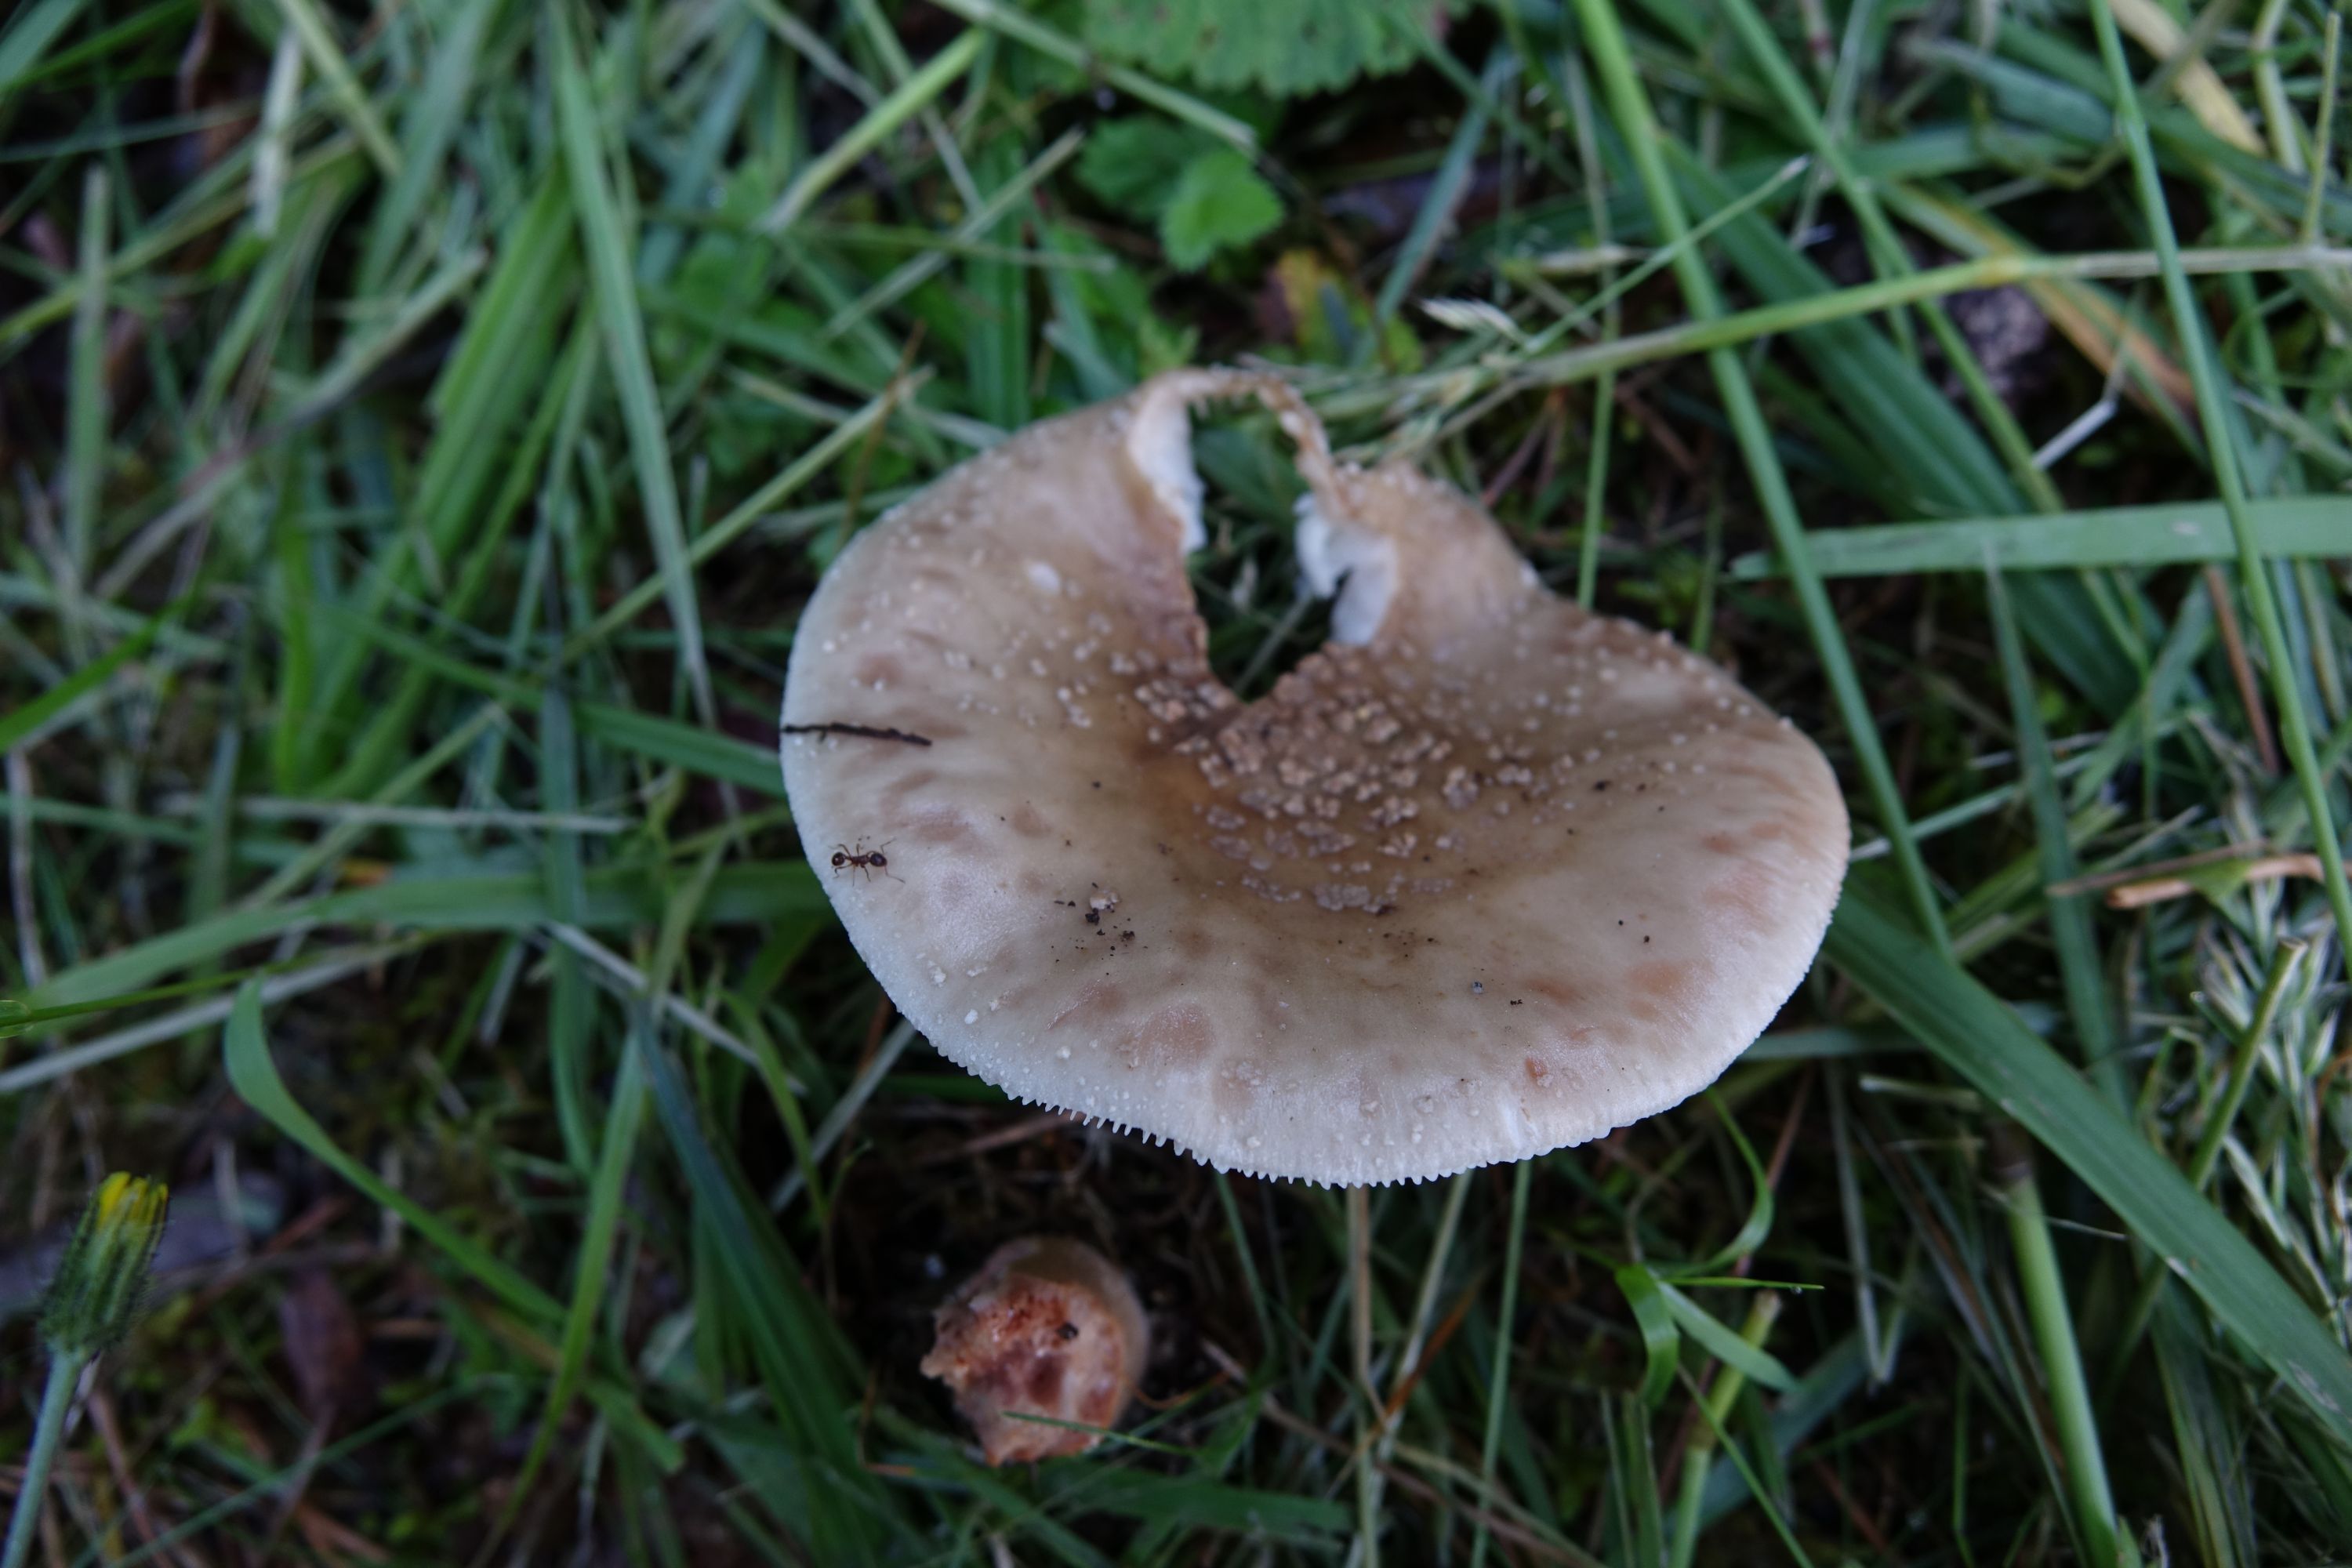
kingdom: Fungi
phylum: Basidiomycota
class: Agaricomycetes
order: Agaricales
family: Amanitaceae
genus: Amanita
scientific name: Amanita rubescens
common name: Blusher
